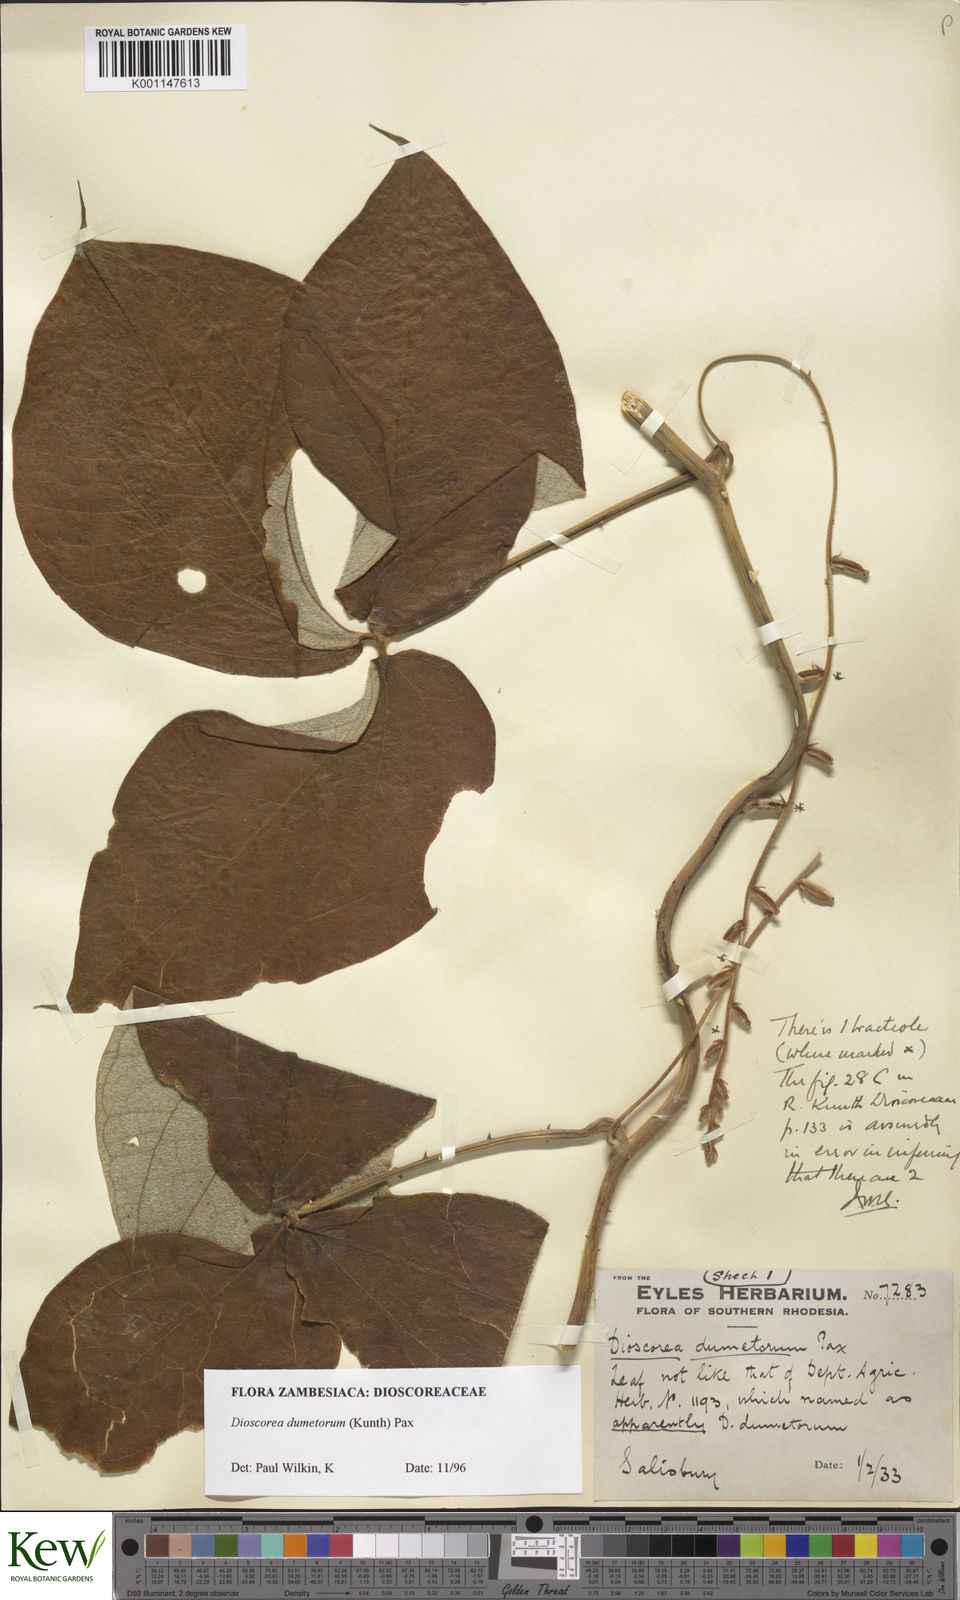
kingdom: Plantae
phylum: Tracheophyta
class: Liliopsida
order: Dioscoreales
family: Dioscoreaceae
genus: Dioscorea
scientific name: Dioscorea dumetorum
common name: African bitter yam
